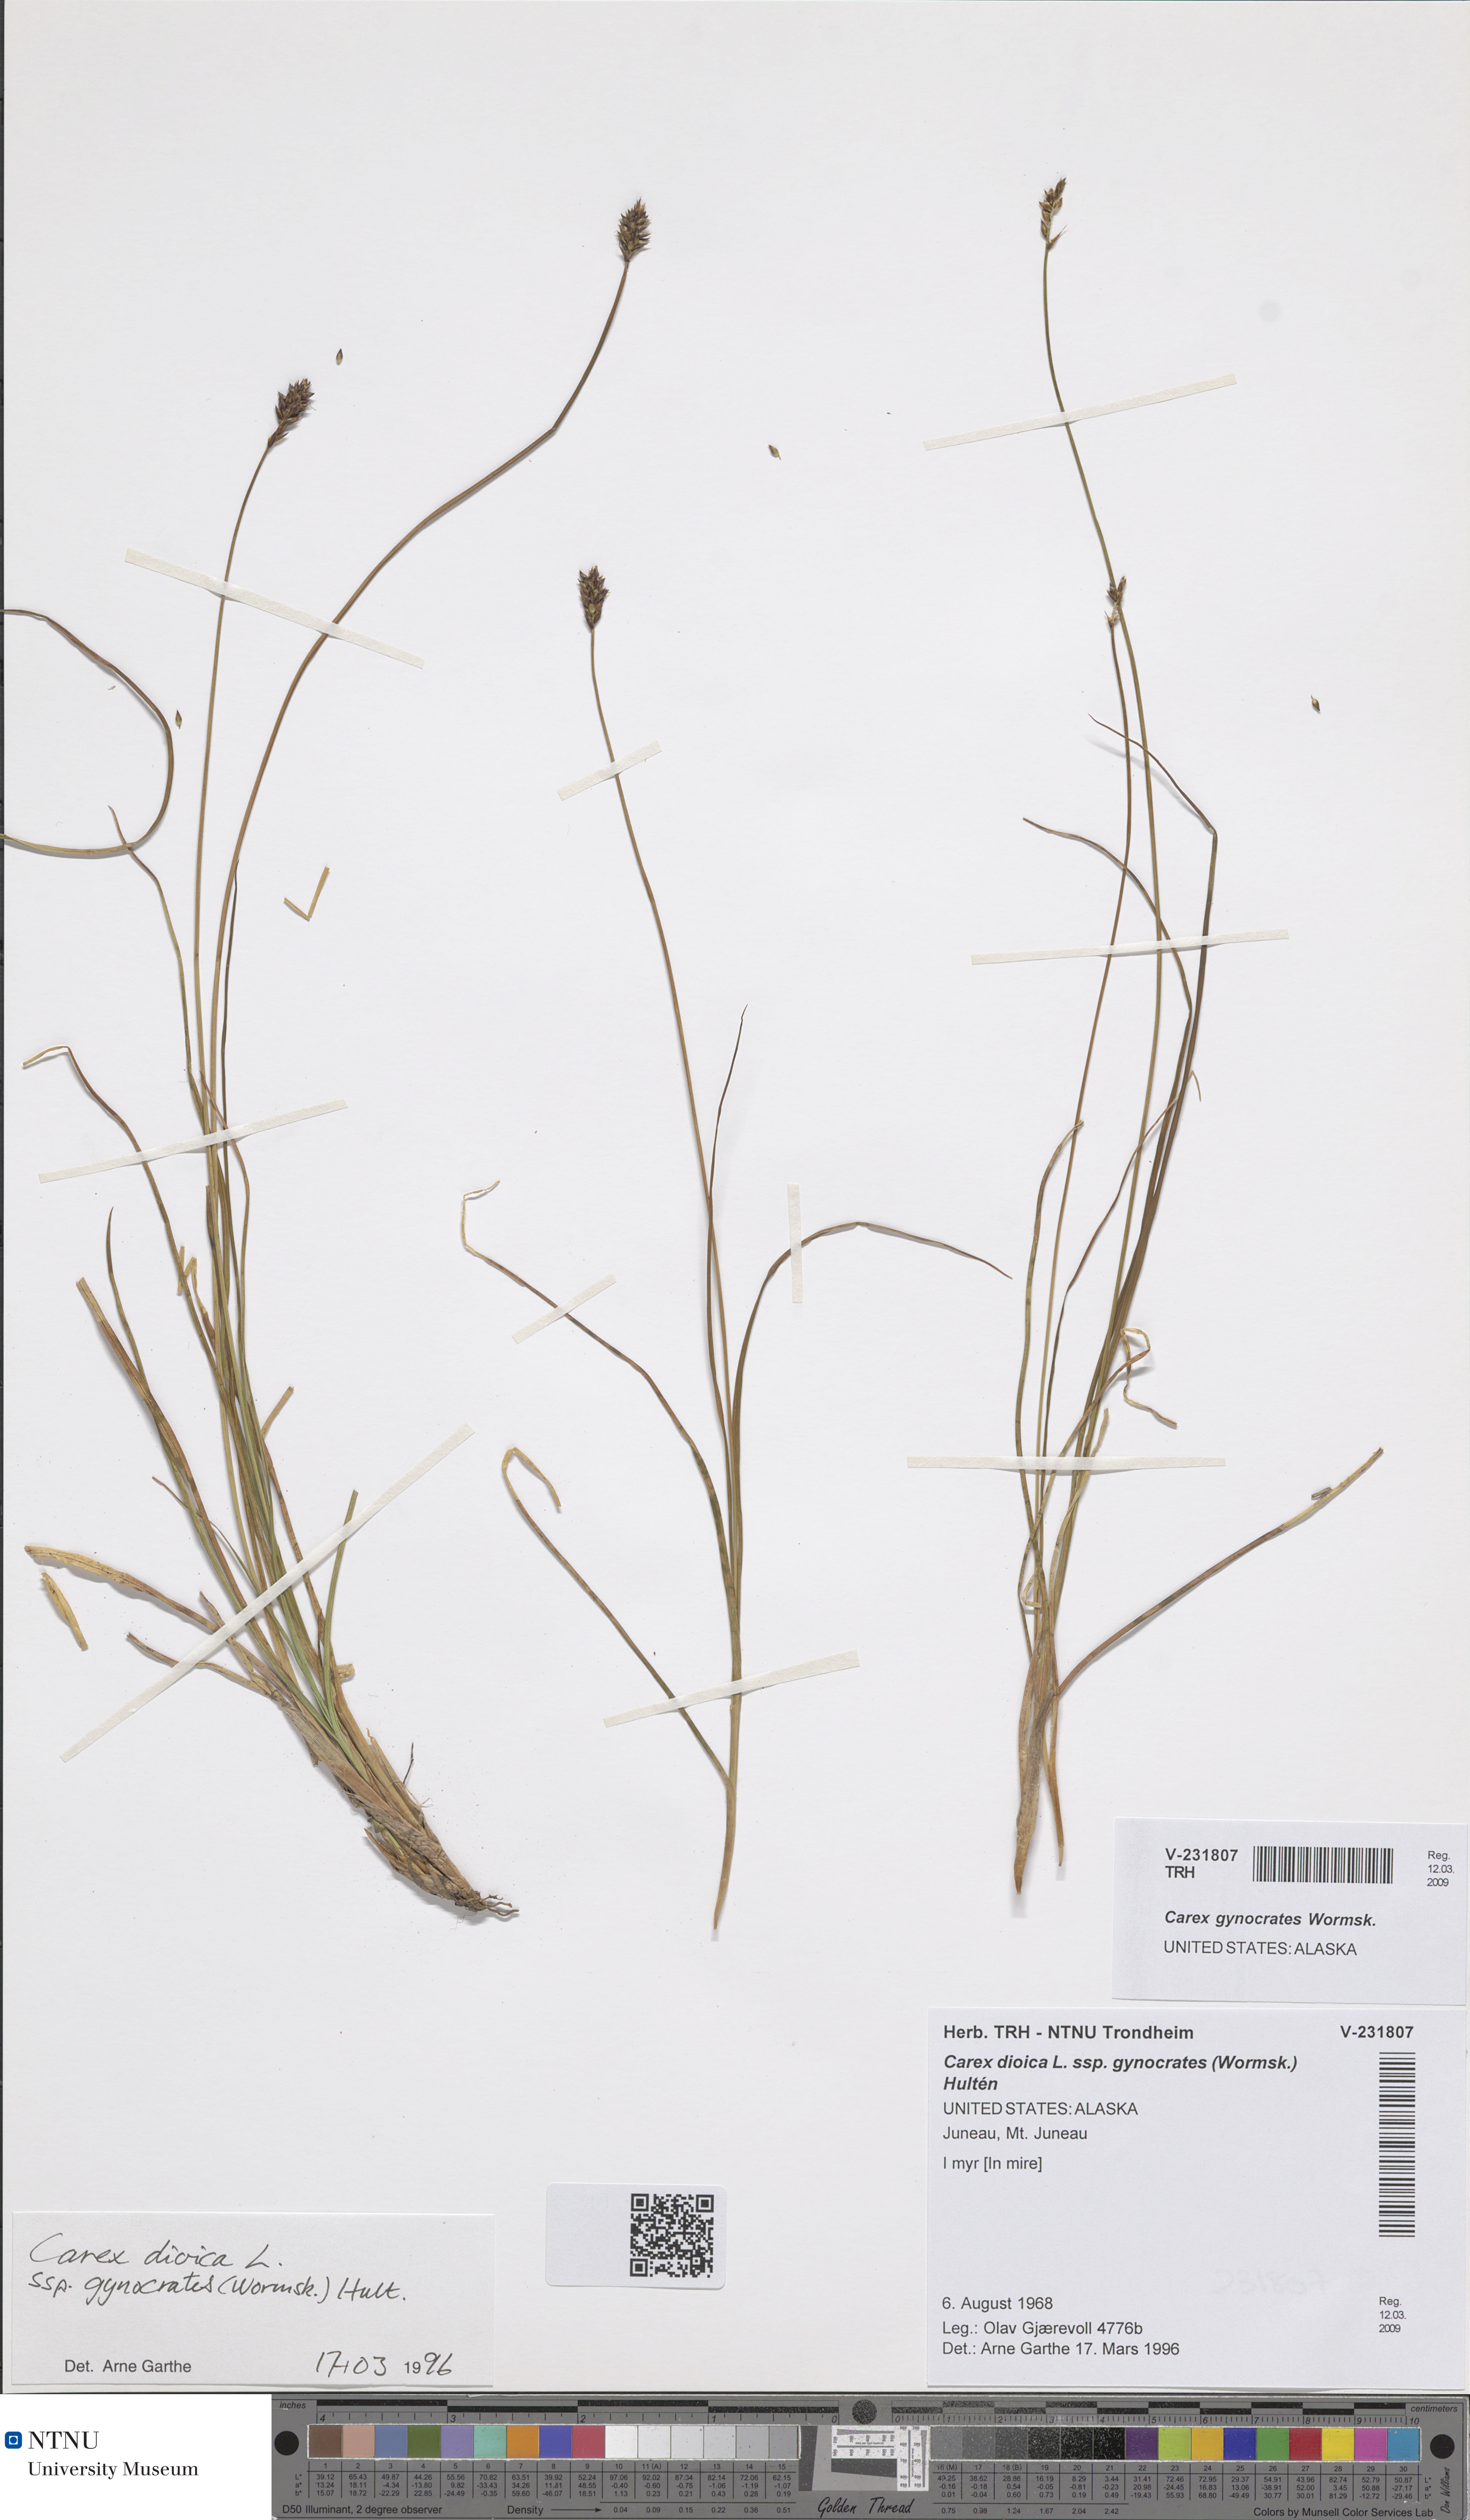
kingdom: Plantae
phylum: Tracheophyta
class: Liliopsida
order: Poales
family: Cyperaceae
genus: Carex
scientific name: Carex gynocrates
